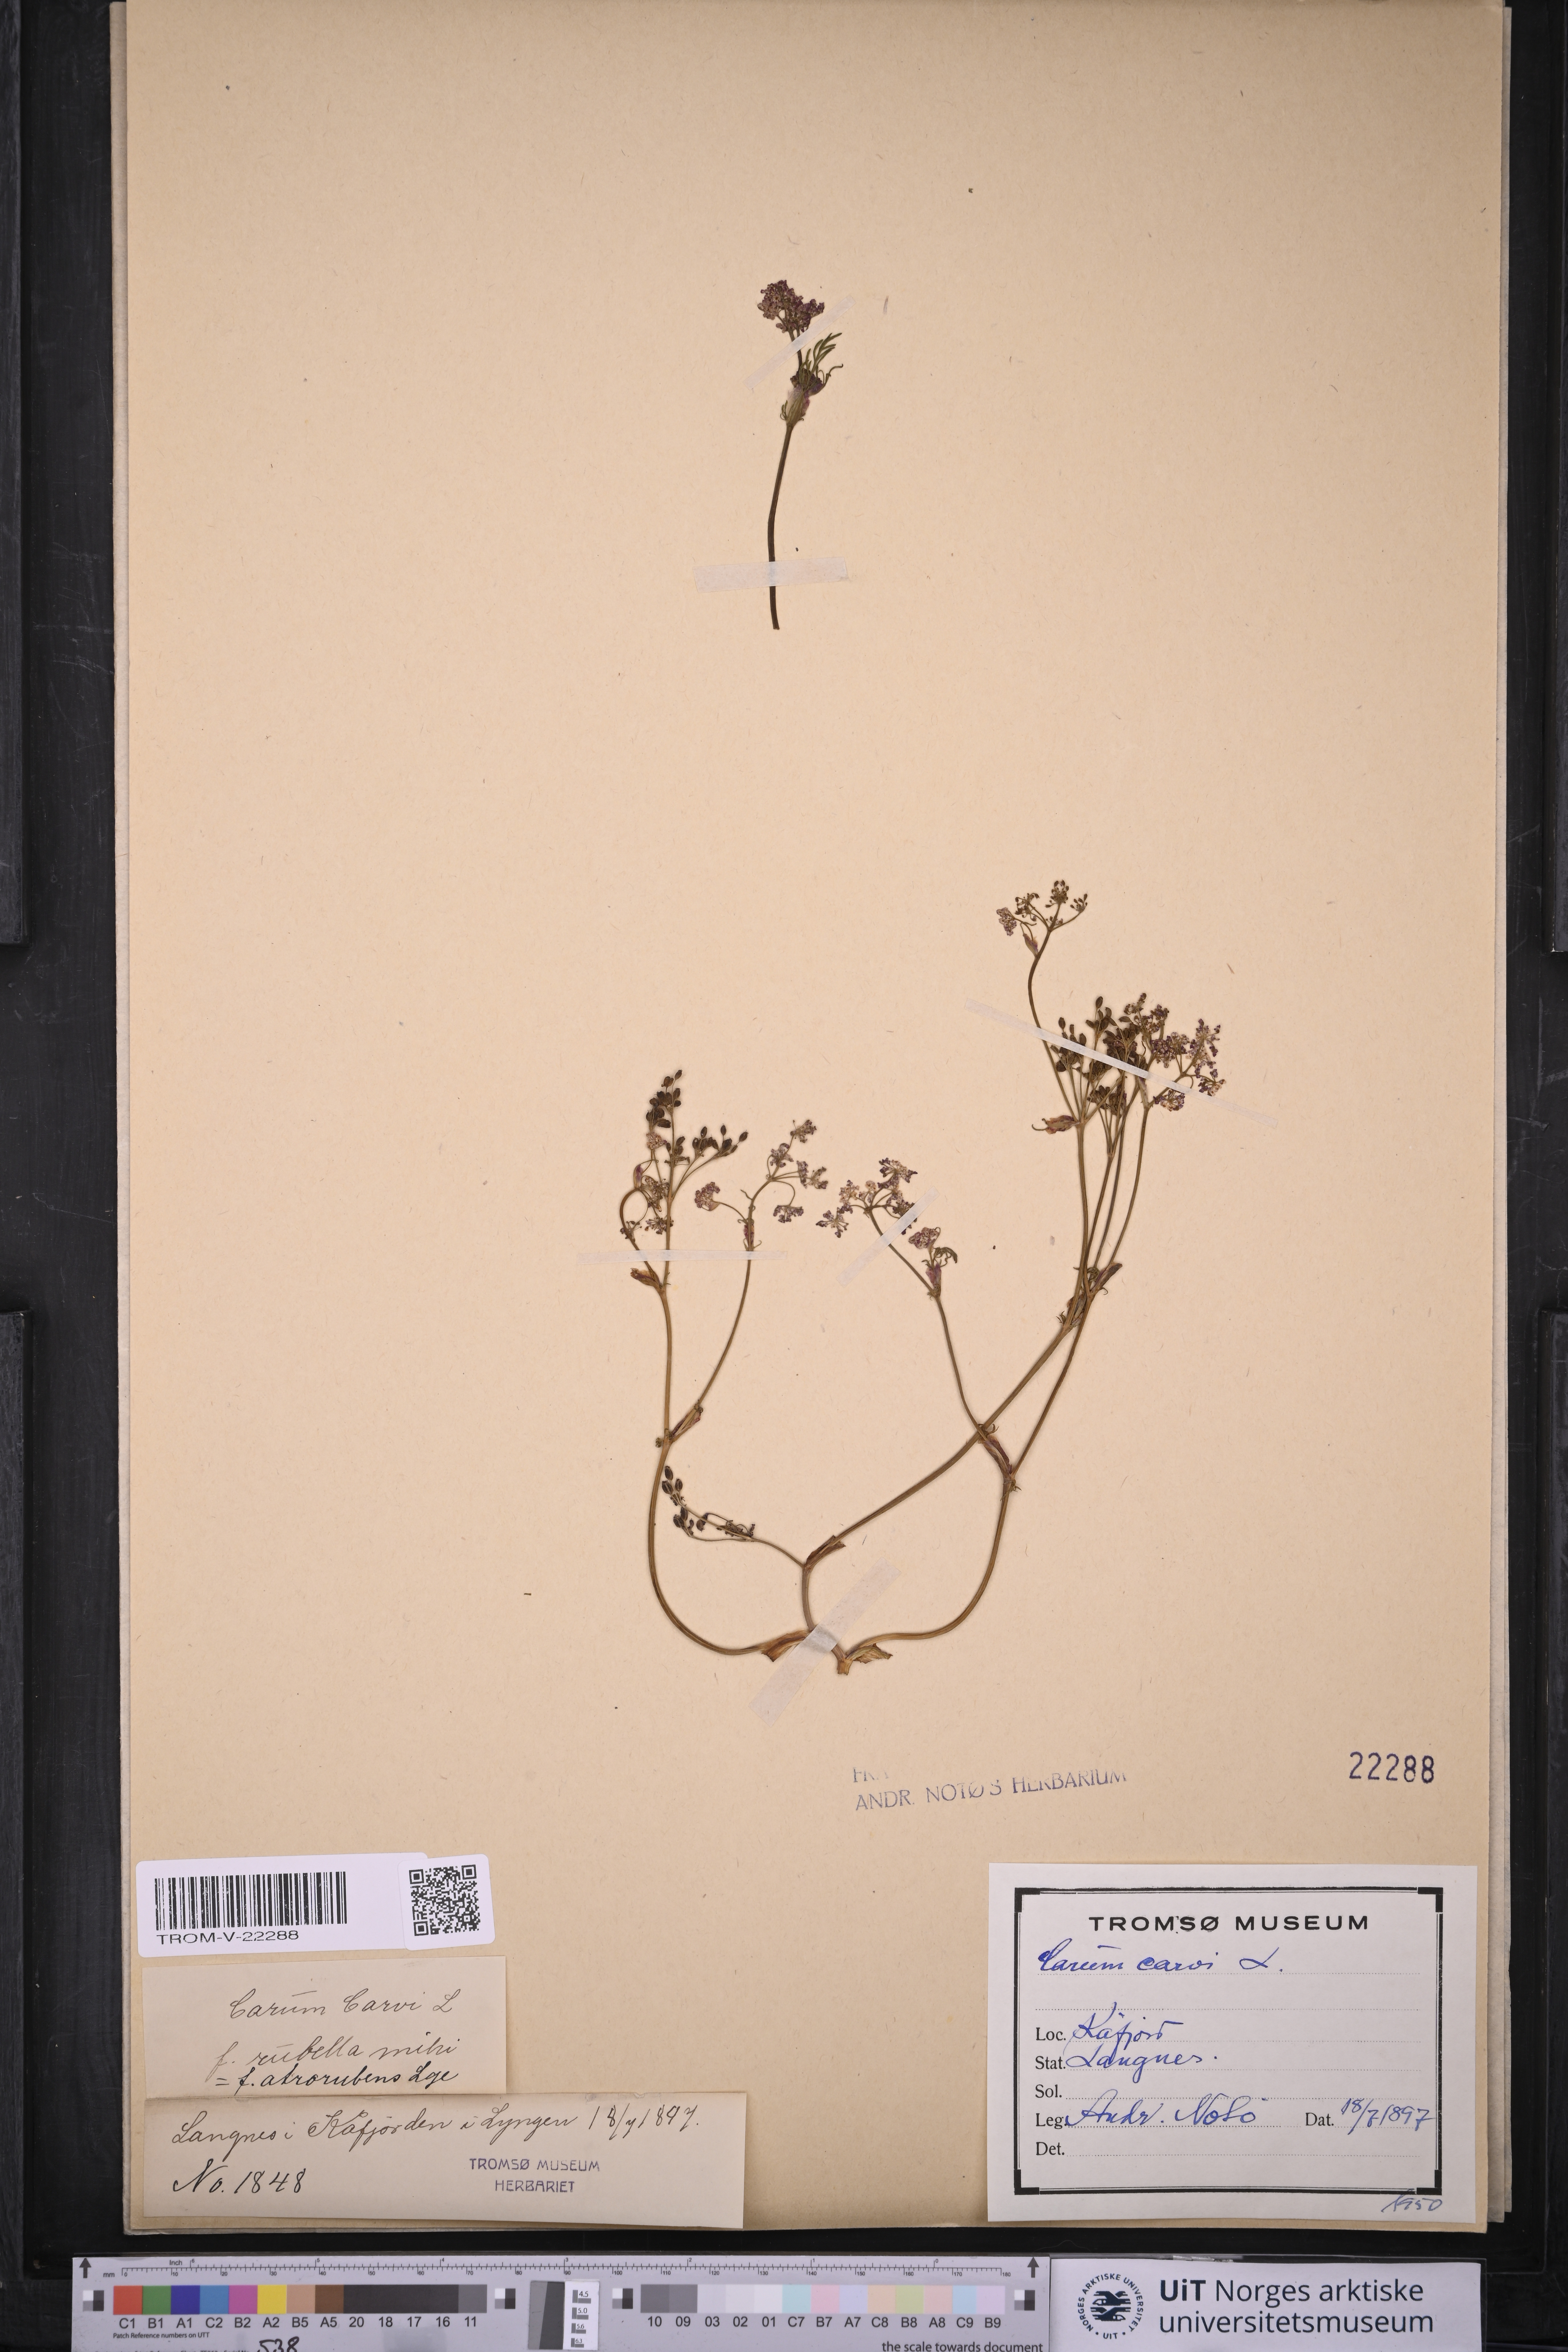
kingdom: Plantae
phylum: Tracheophyta
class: Magnoliopsida
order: Apiales
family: Apiaceae
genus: Carum
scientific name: Carum carvi
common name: Caraway
